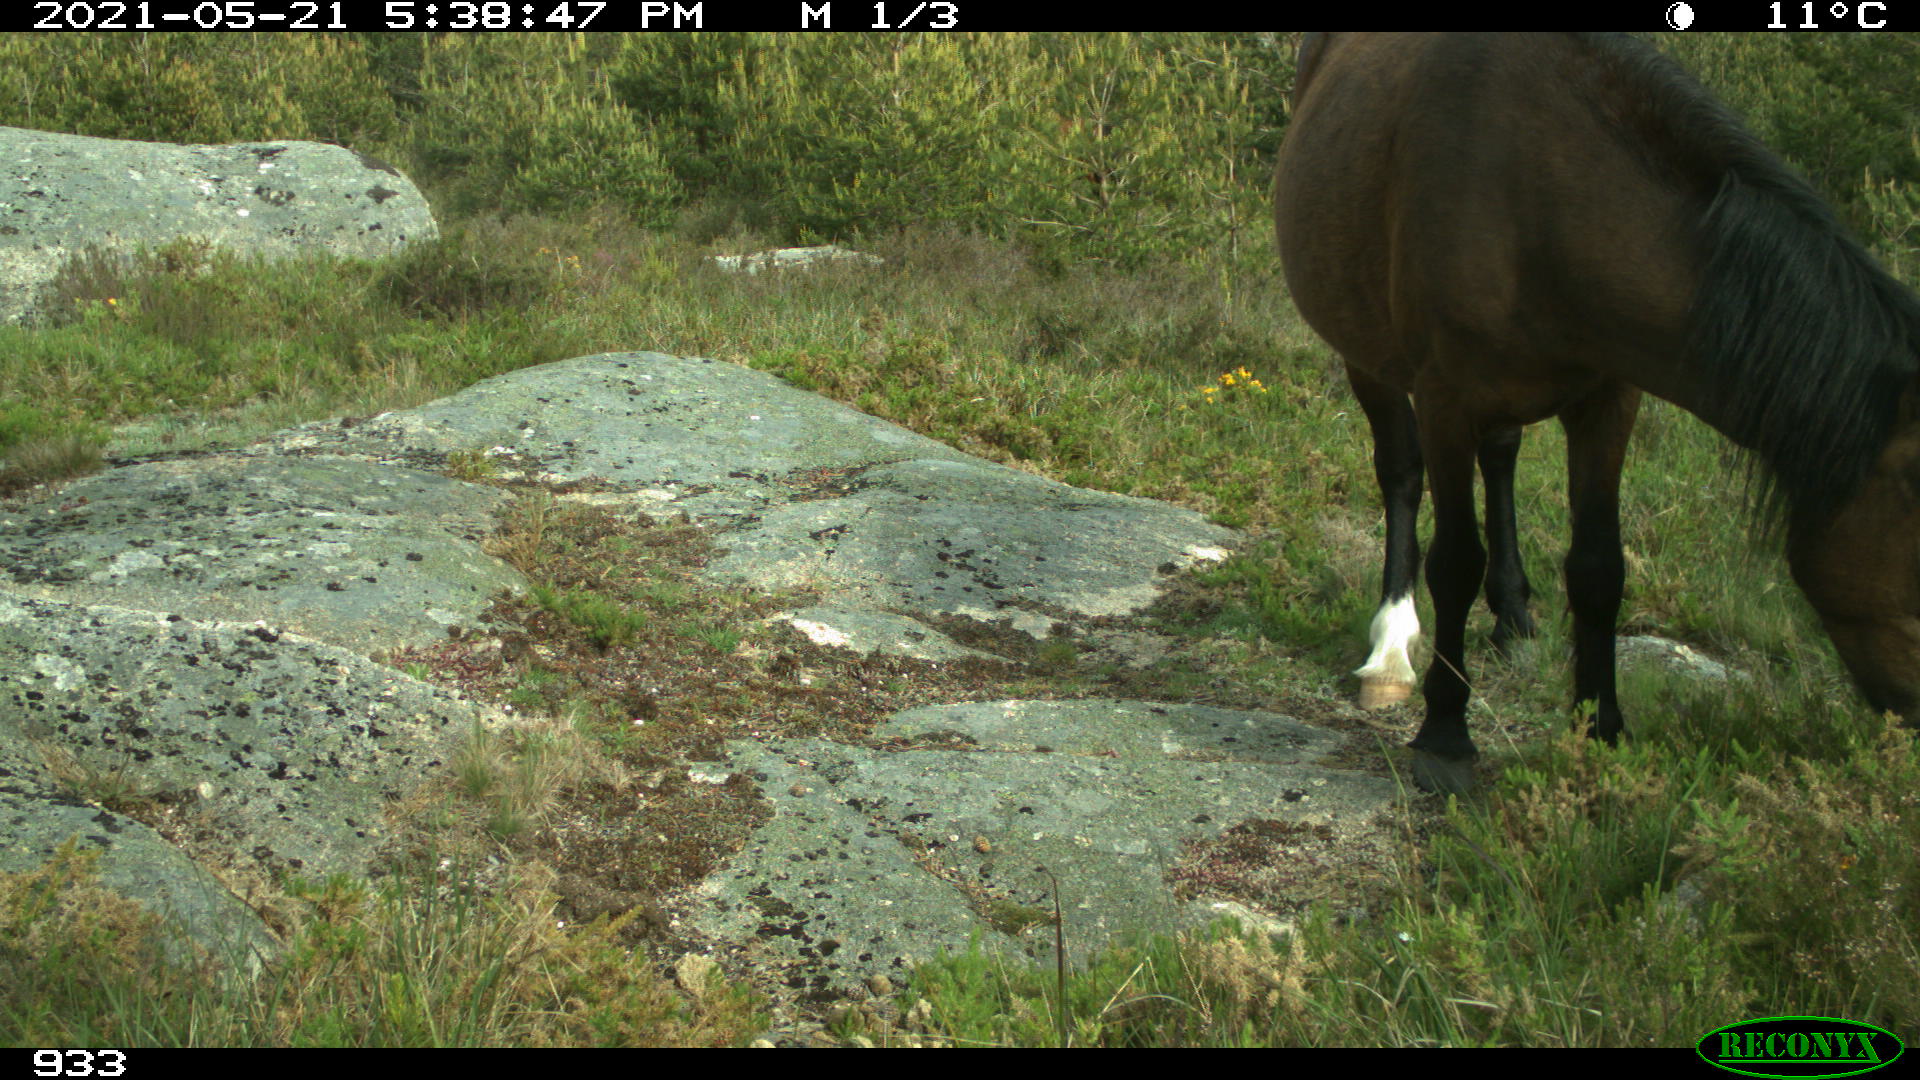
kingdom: Animalia
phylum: Chordata
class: Mammalia
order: Perissodactyla
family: Equidae
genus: Equus
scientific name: Equus caballus
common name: Horse
